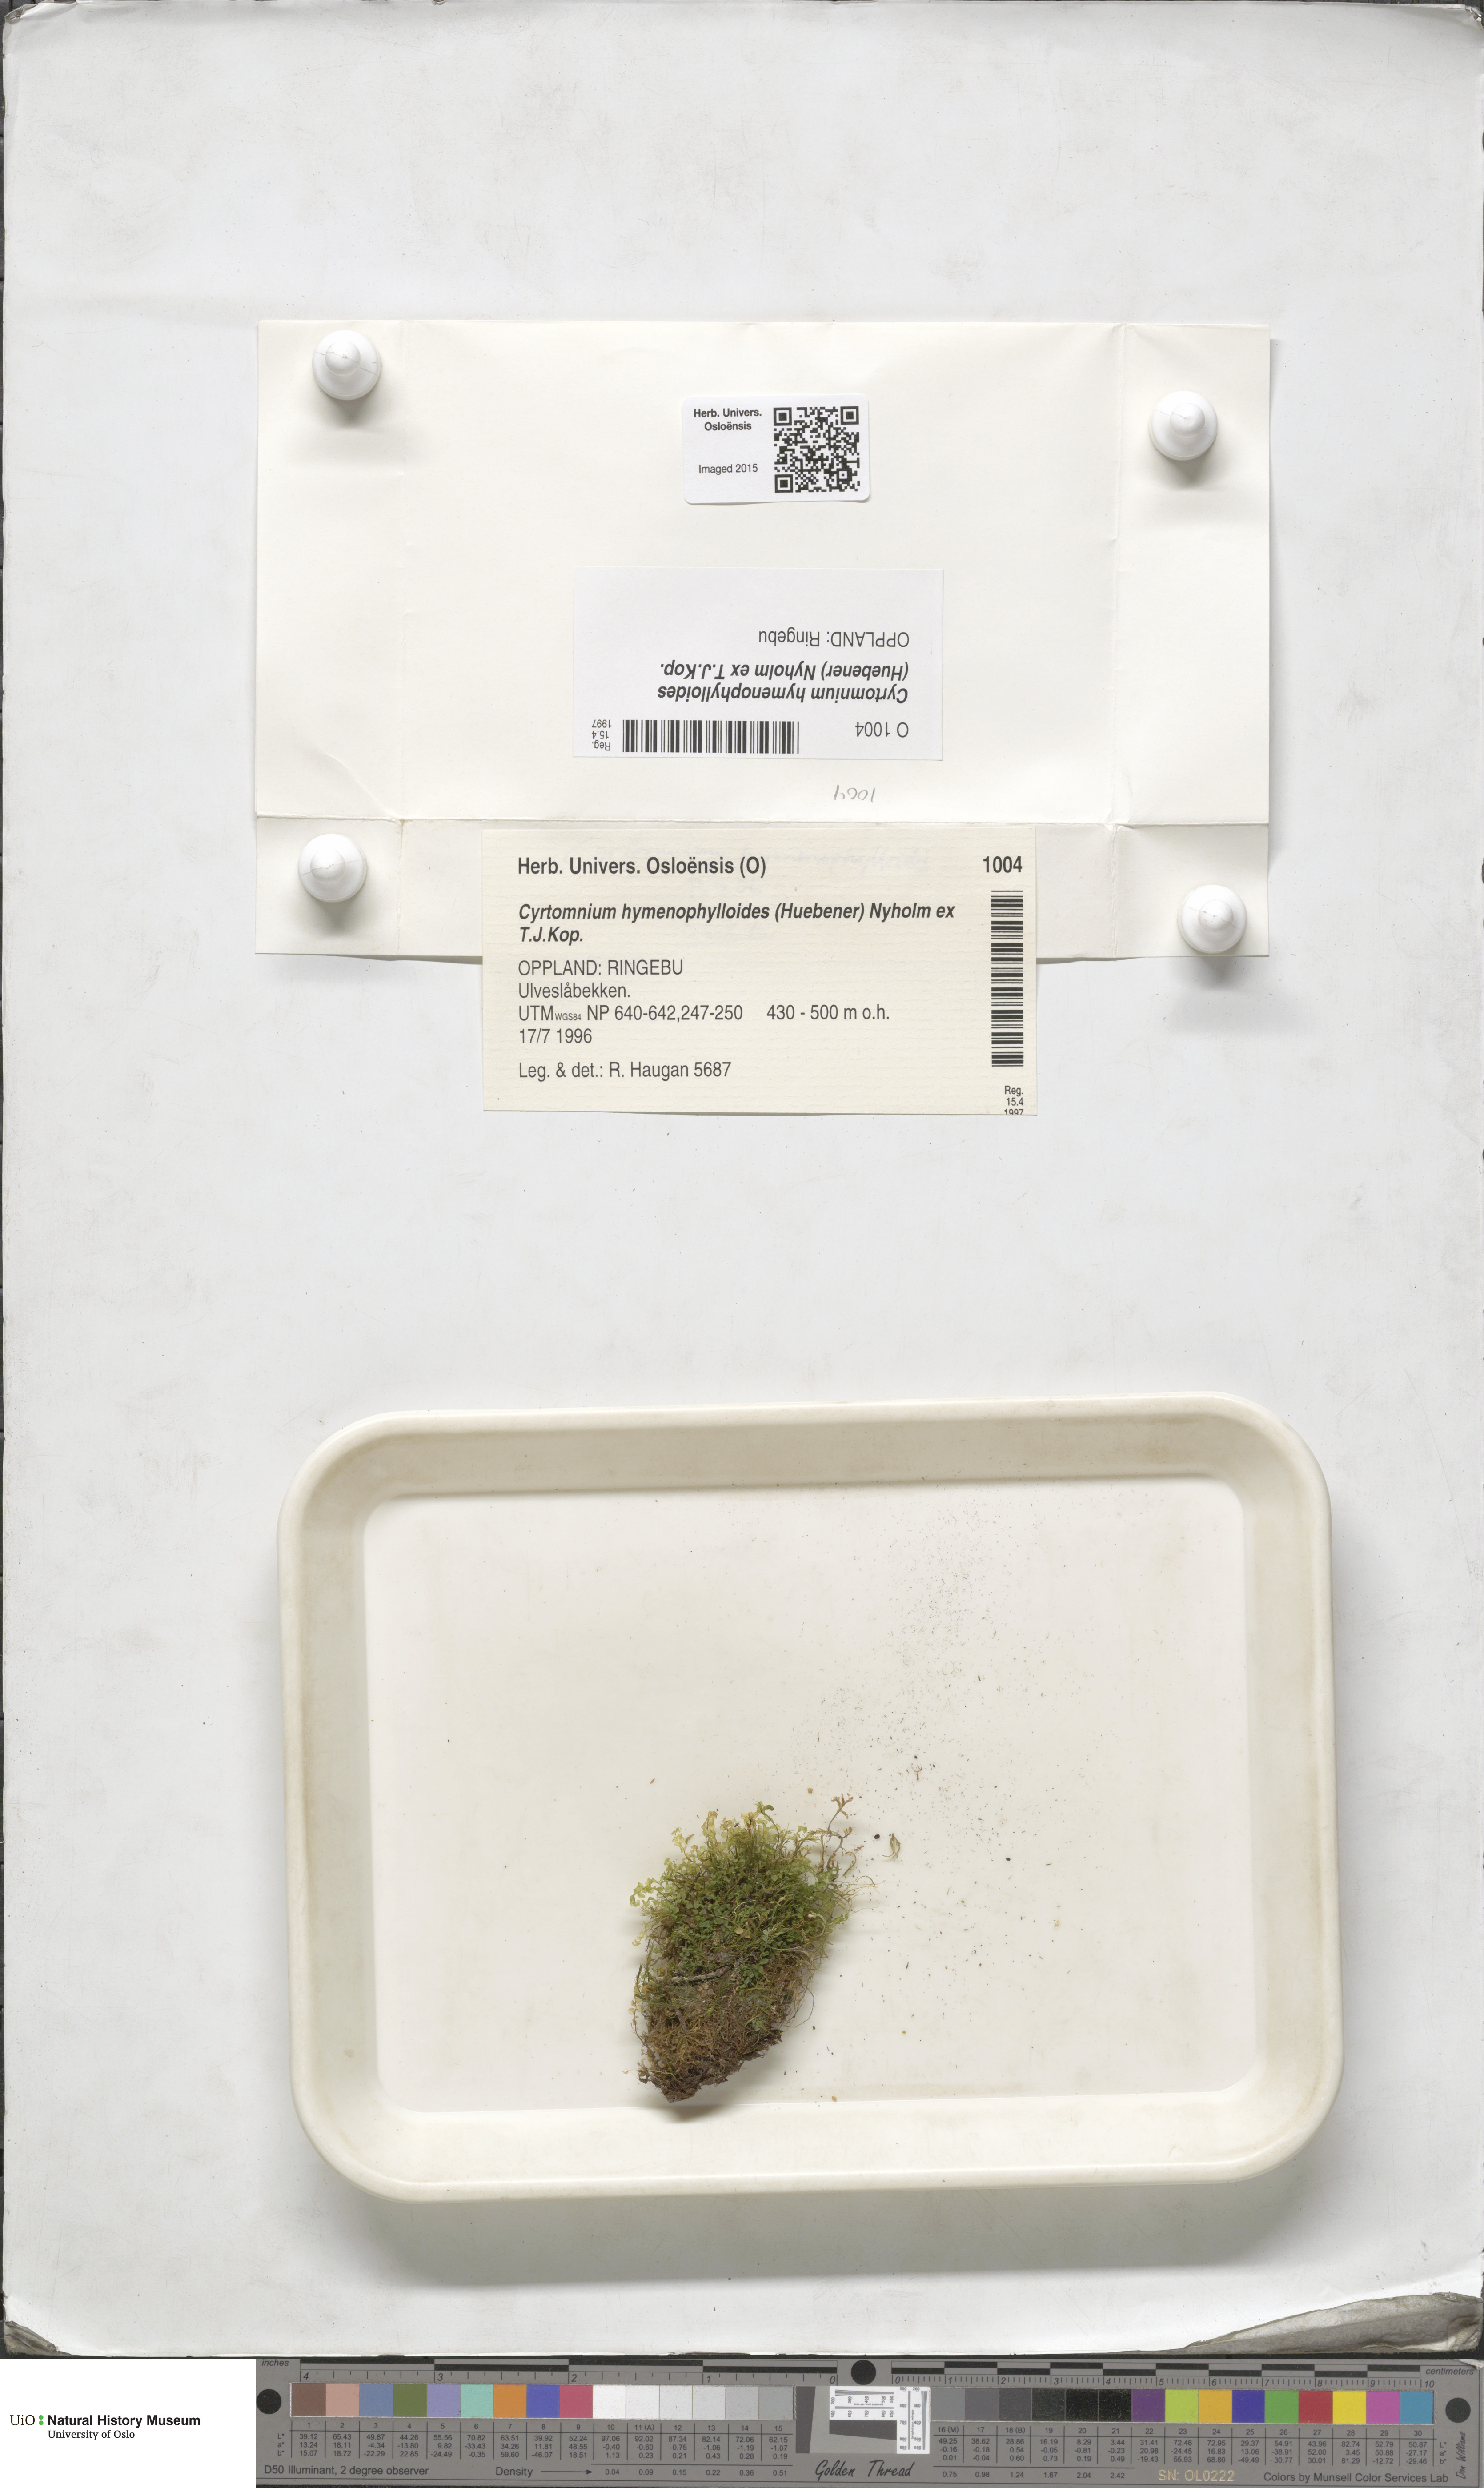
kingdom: Plantae
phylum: Bryophyta
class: Bryopsida
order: Bryales
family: Mniaceae
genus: Cyrtomnium
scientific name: Cyrtomnium hymenophylloides
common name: Short-pointed lantern moss
